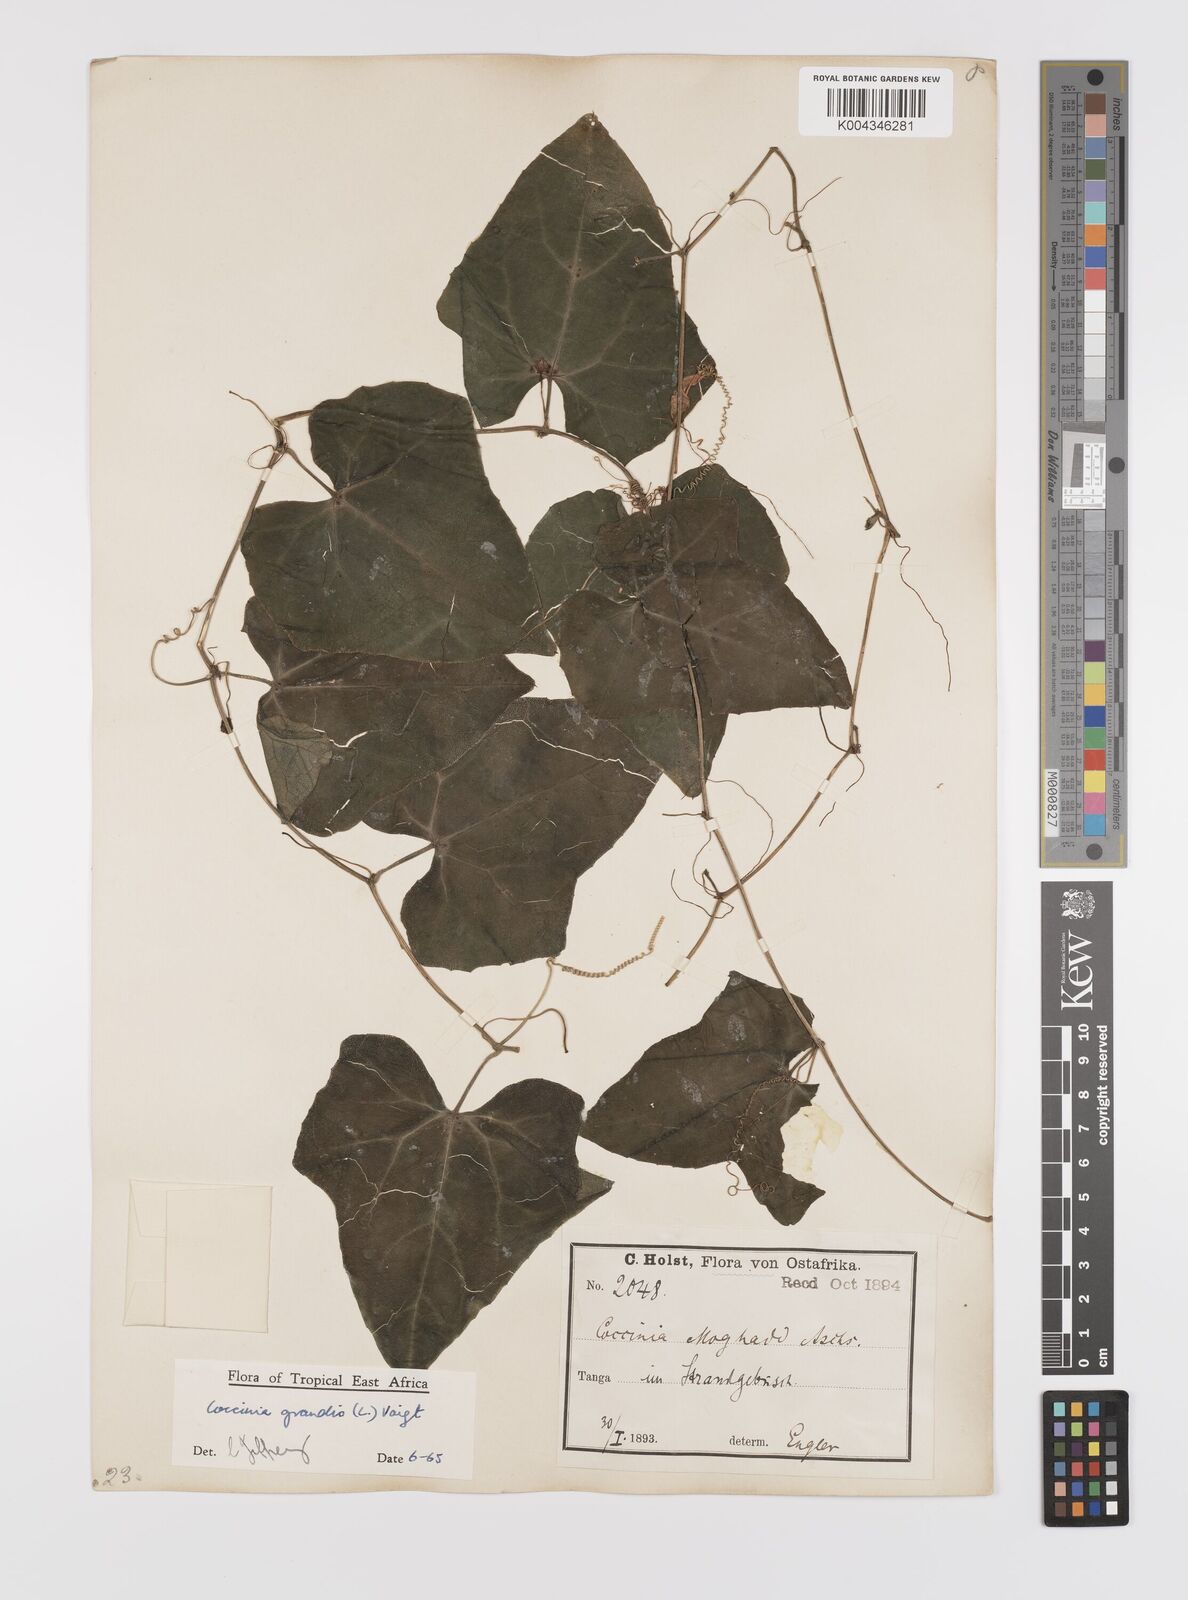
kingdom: Plantae
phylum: Tracheophyta
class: Magnoliopsida
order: Cucurbitales
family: Cucurbitaceae
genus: Coccinia
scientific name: Coccinia grandis
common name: Ivy gourd
